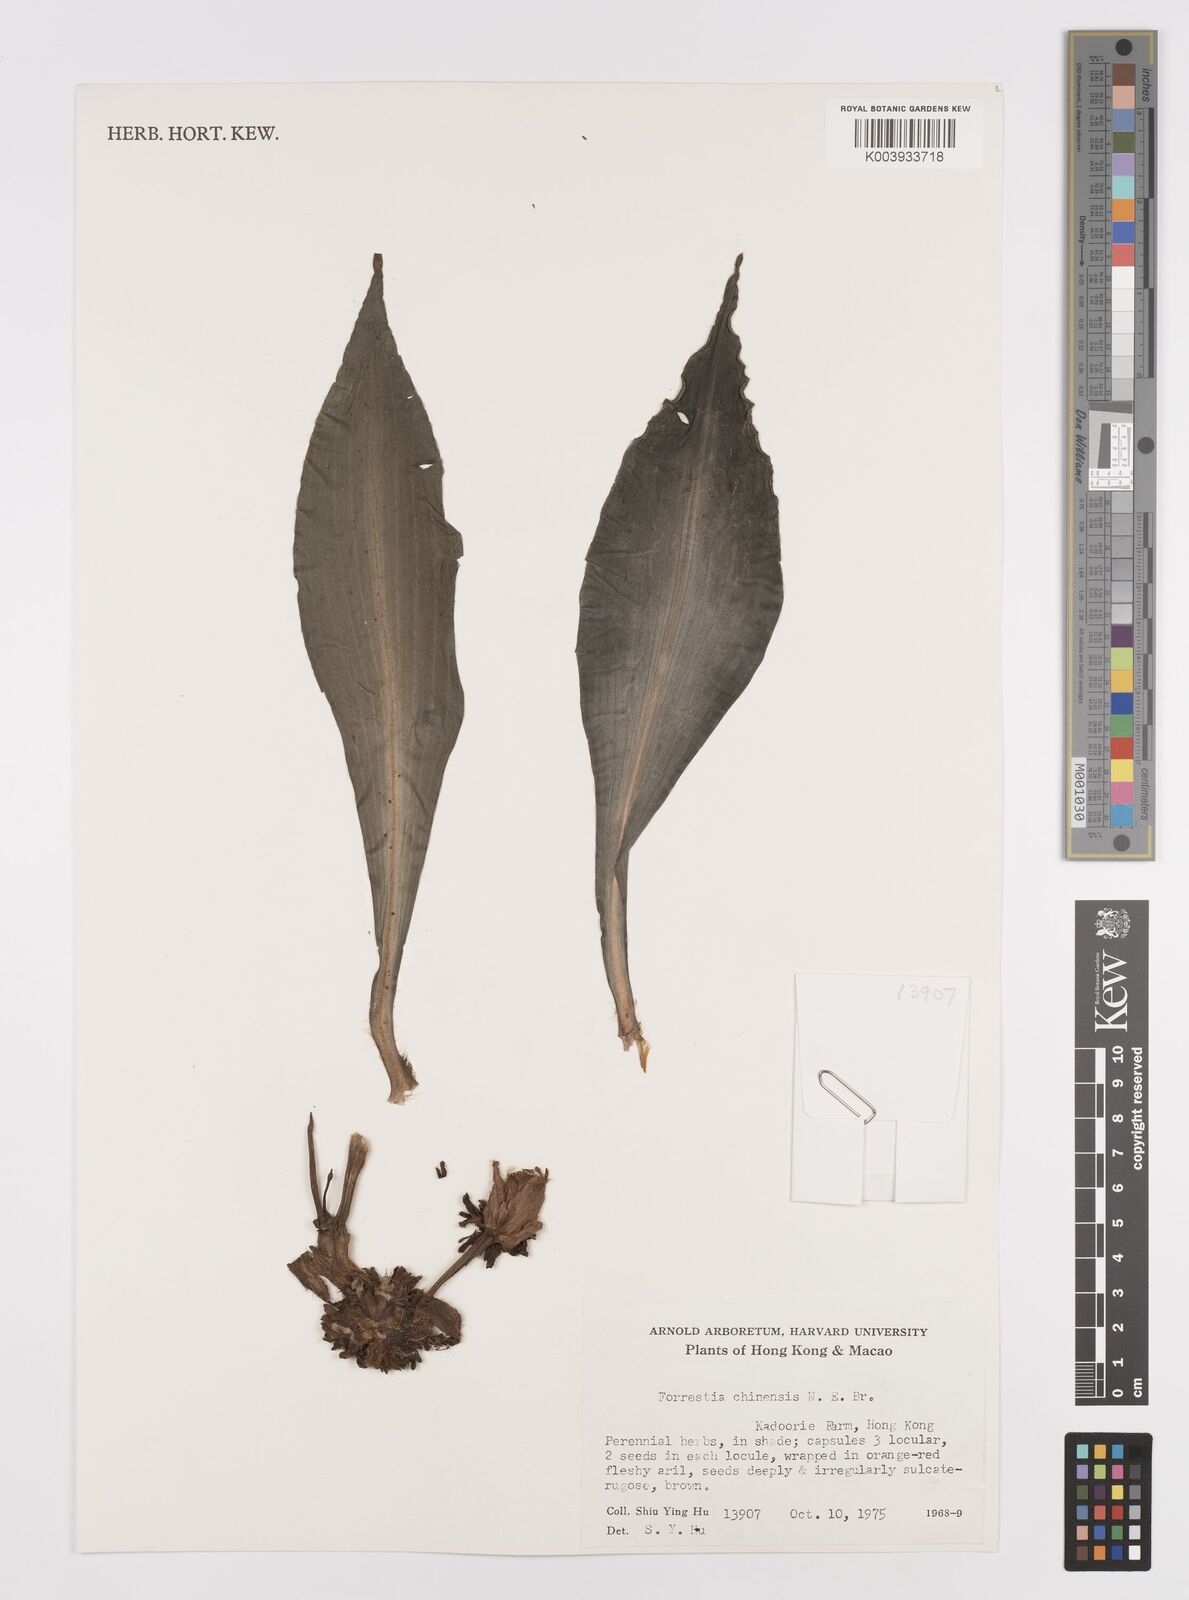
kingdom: Plantae
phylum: Tracheophyta
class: Liliopsida
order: Commelinales
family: Commelinaceae
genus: Amischotolype
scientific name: Amischotolype hispida
